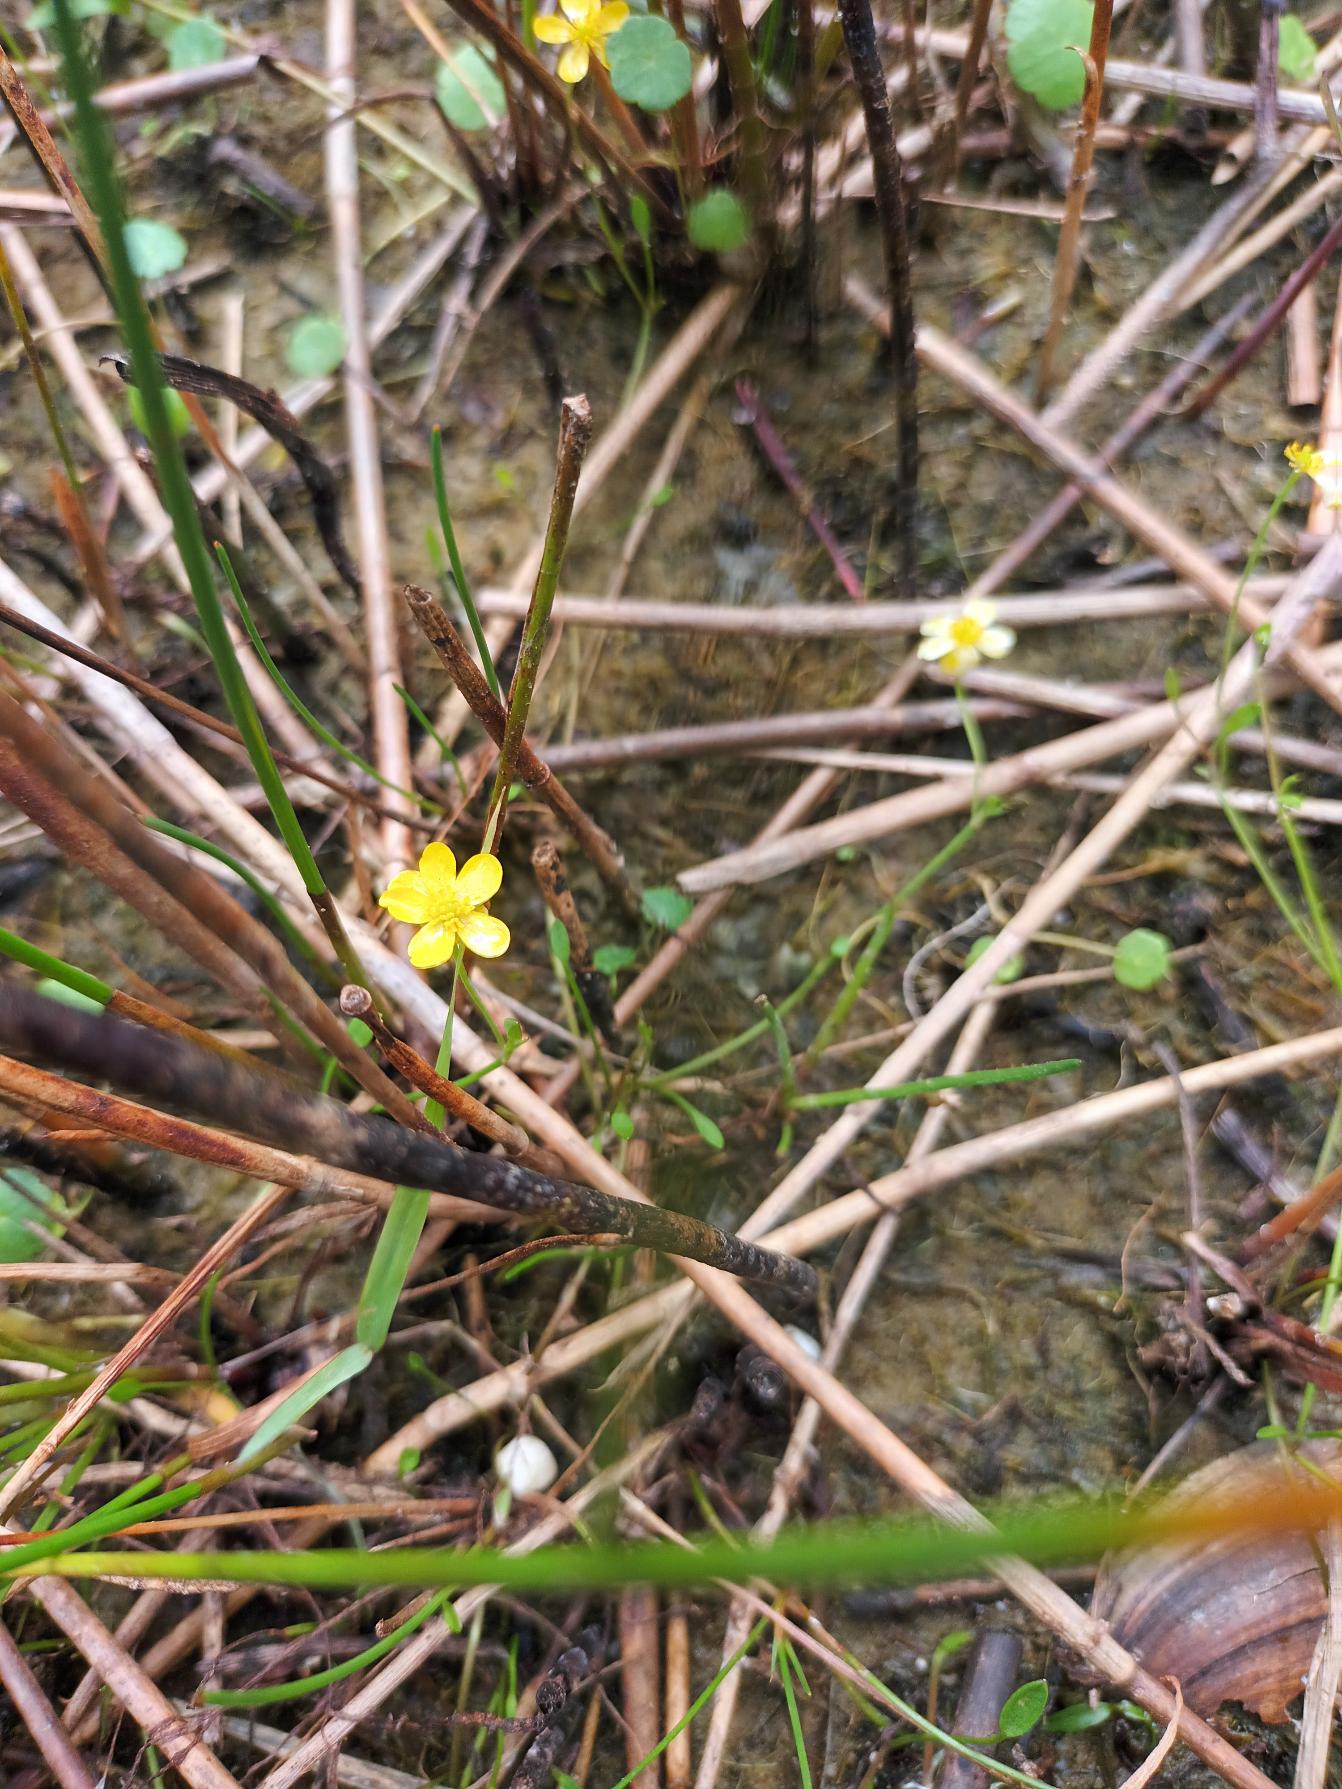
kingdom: Plantae
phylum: Tracheophyta
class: Magnoliopsida
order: Ranunculales
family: Ranunculaceae
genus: Ranunculus
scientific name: Ranunculus reptans
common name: Krybende ranunkel
